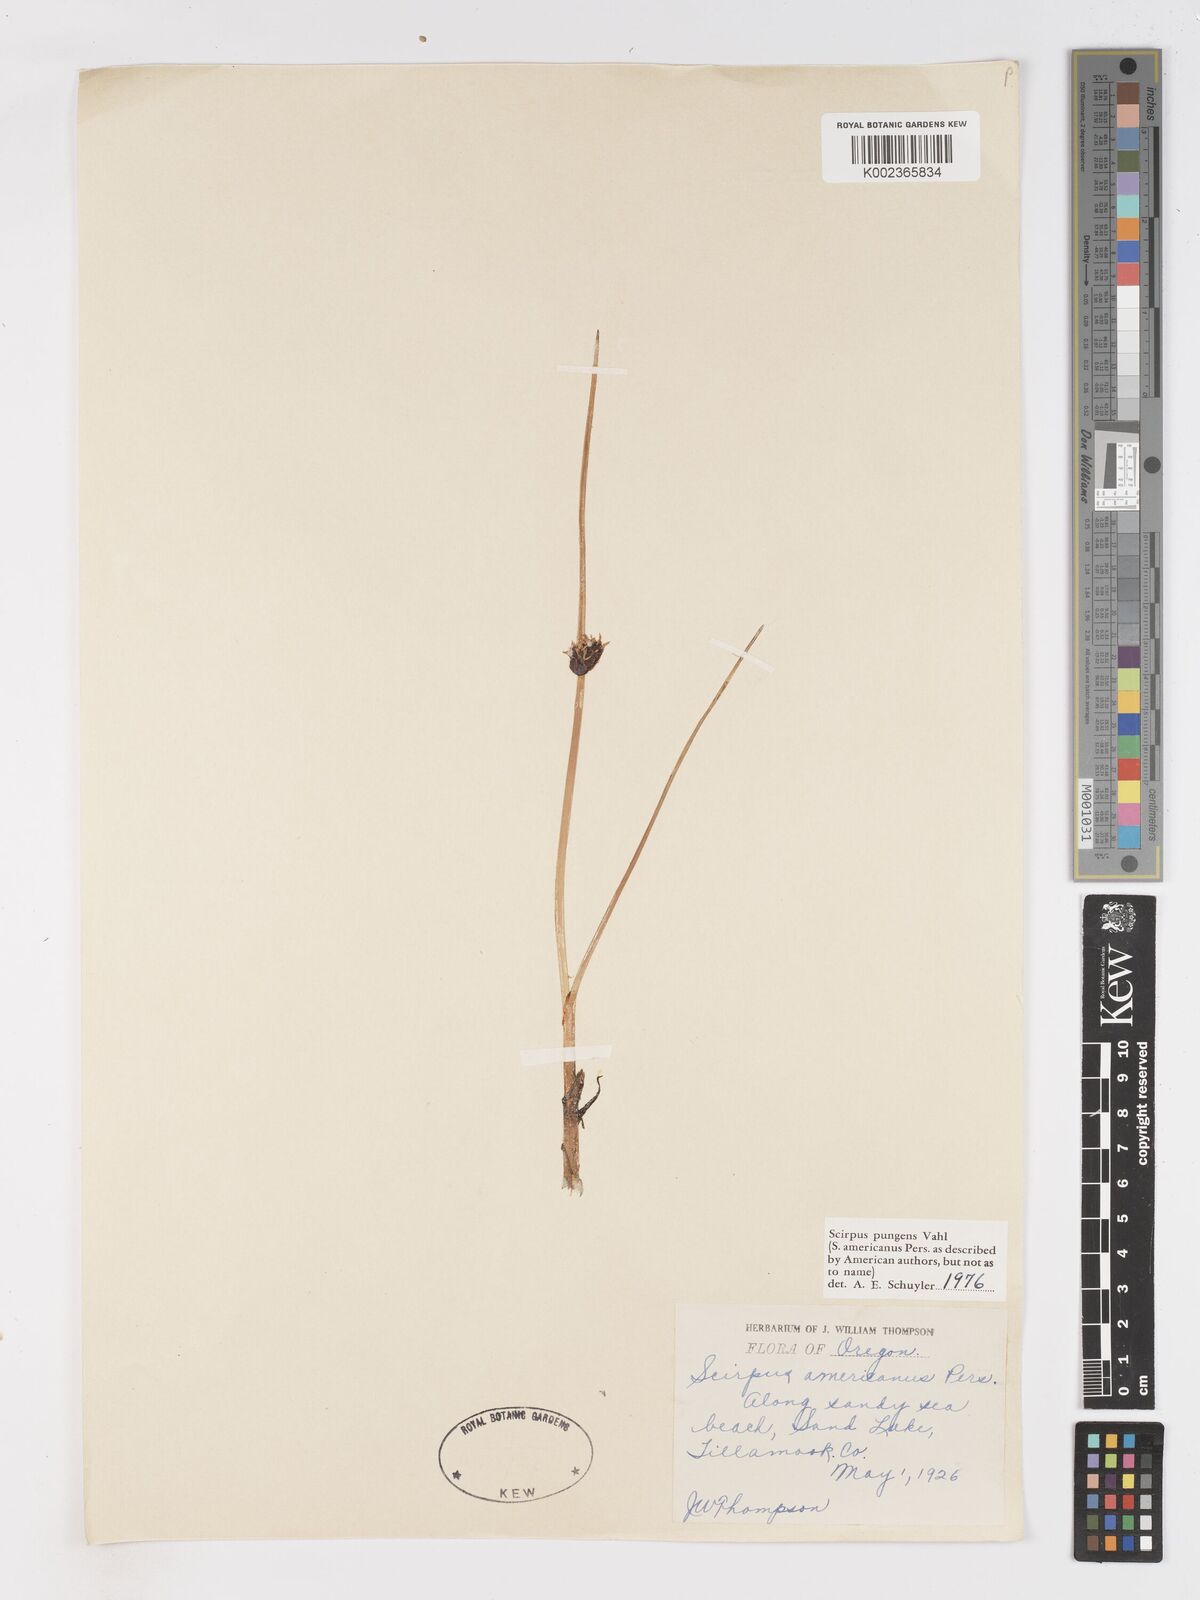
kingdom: Plantae
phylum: Tracheophyta
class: Liliopsida
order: Poales
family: Cyperaceae
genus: Schoenoplectus
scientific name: Schoenoplectus pungens
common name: Sharp club-rush
